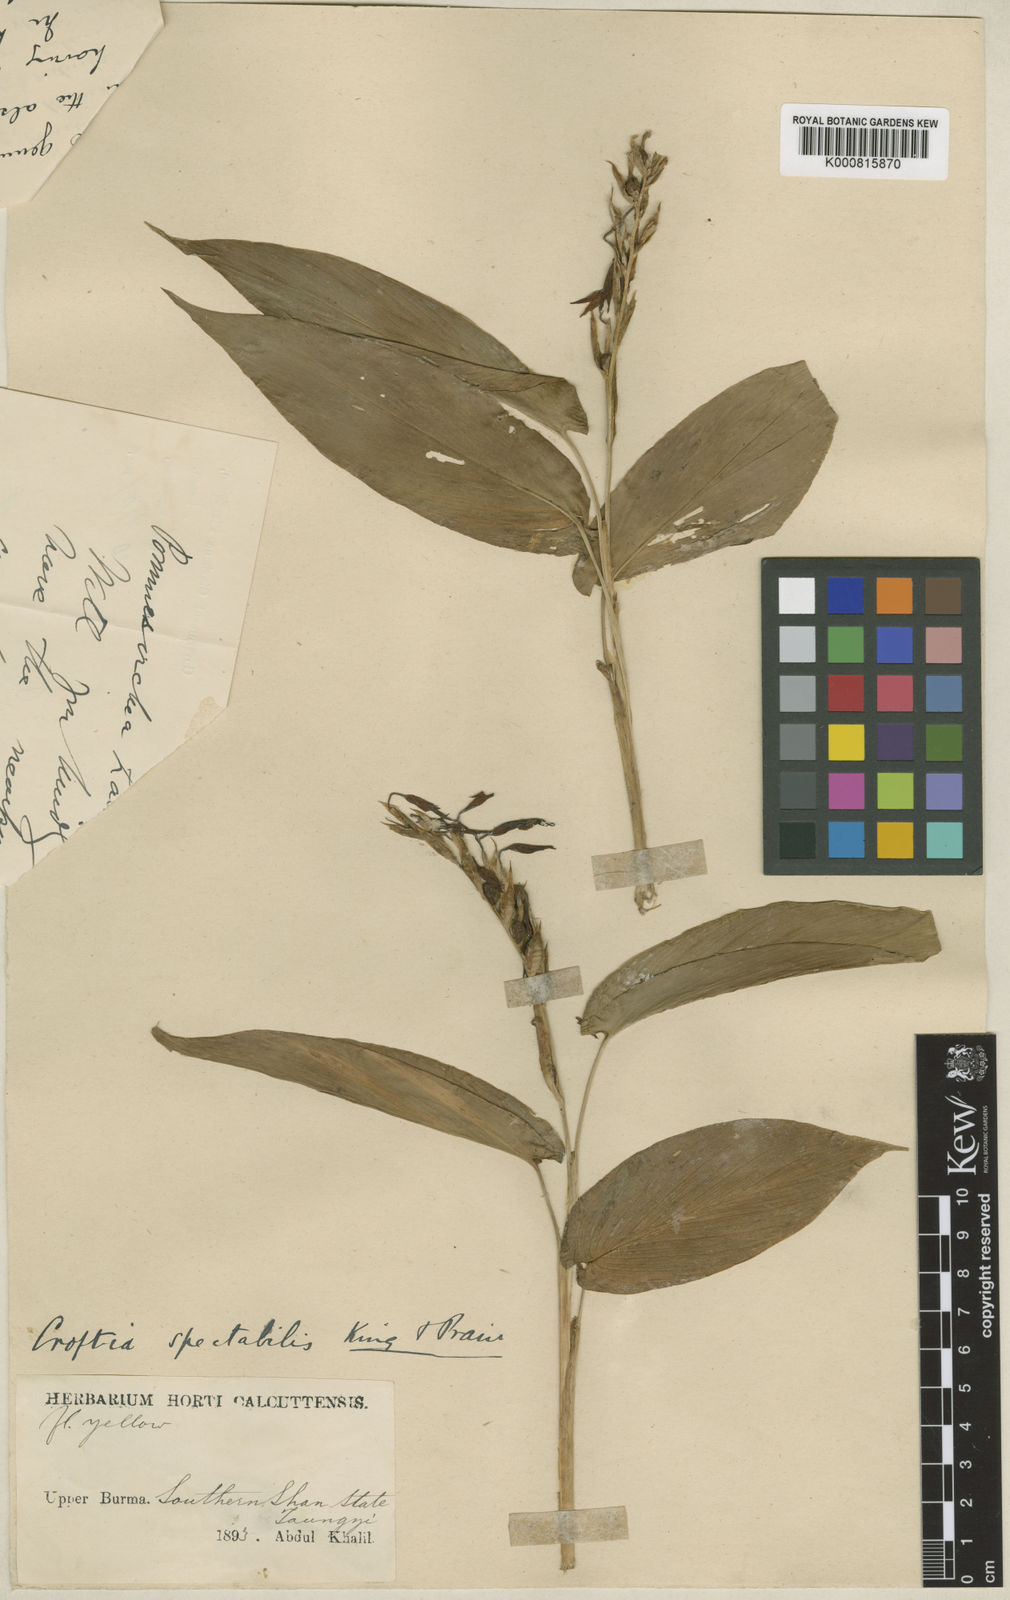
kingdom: Plantae
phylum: Tracheophyta
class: Liliopsida
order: Zingiberales
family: Zingiberaceae
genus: Pommereschea
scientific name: Pommereschea lackneri
